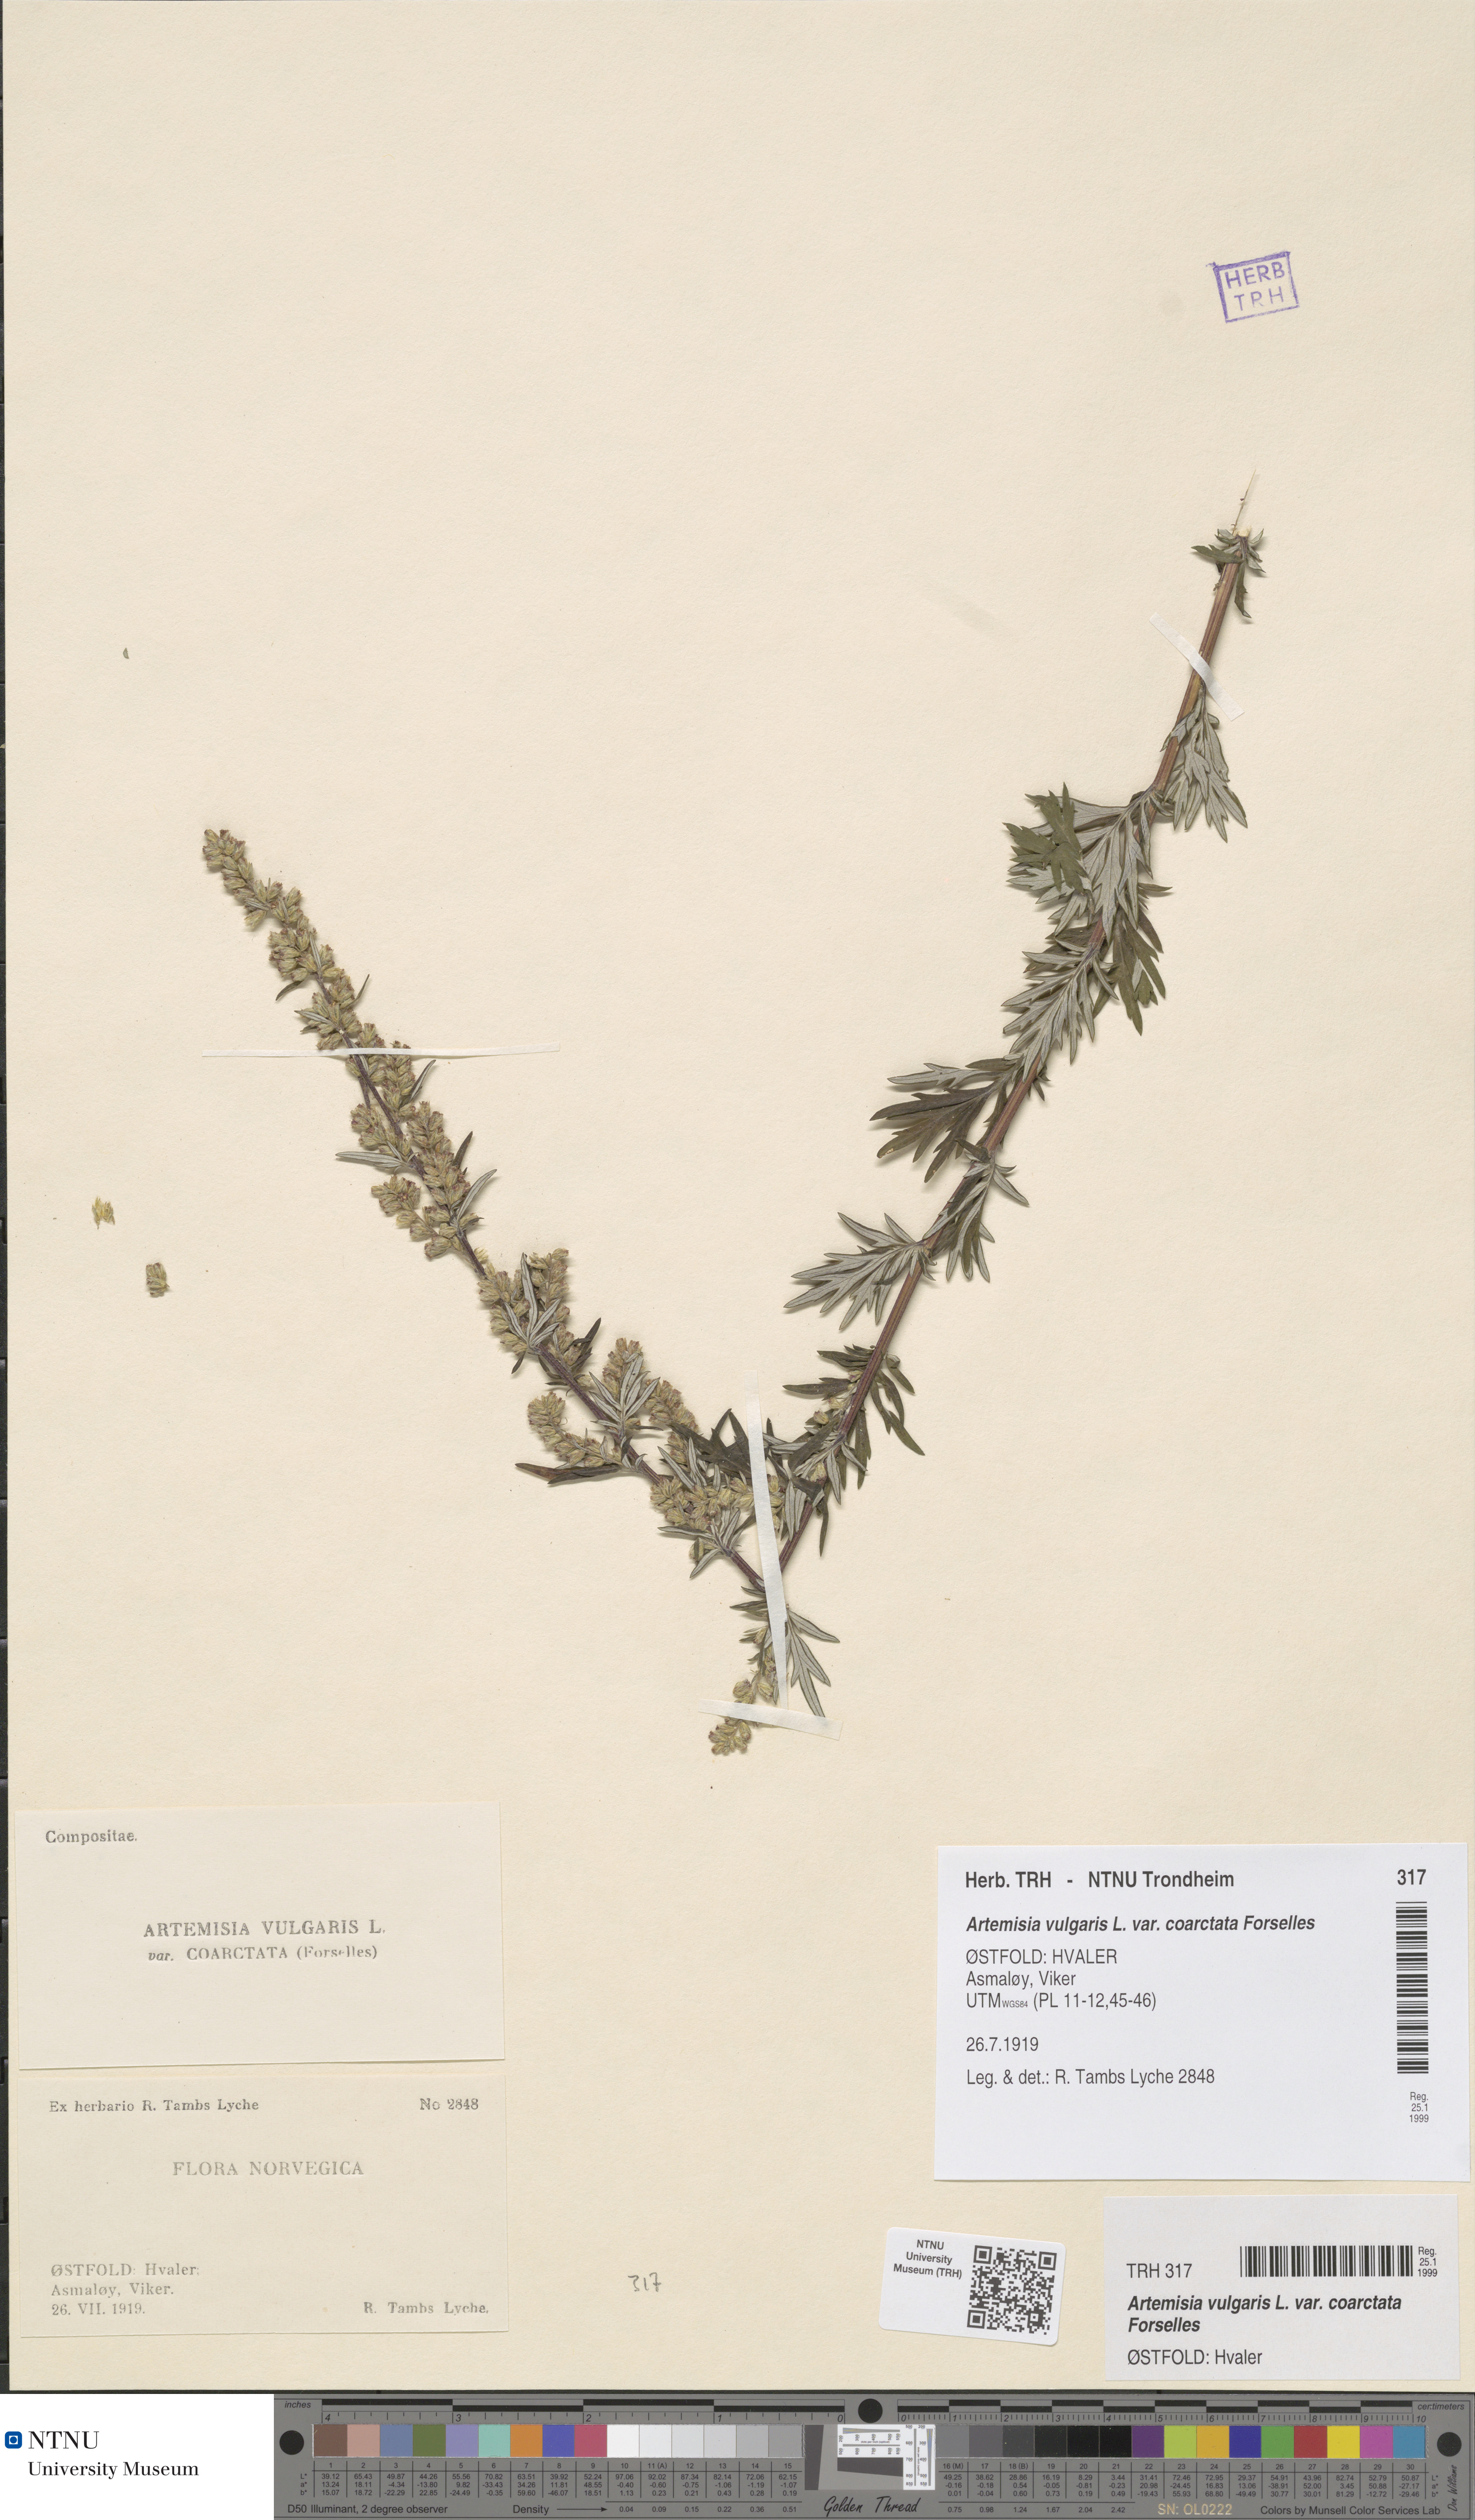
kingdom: Plantae
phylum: Tracheophyta
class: Magnoliopsida
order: Asterales
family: Asteraceae
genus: Artemisia
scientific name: Artemisia vulgaris
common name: Mugwort
